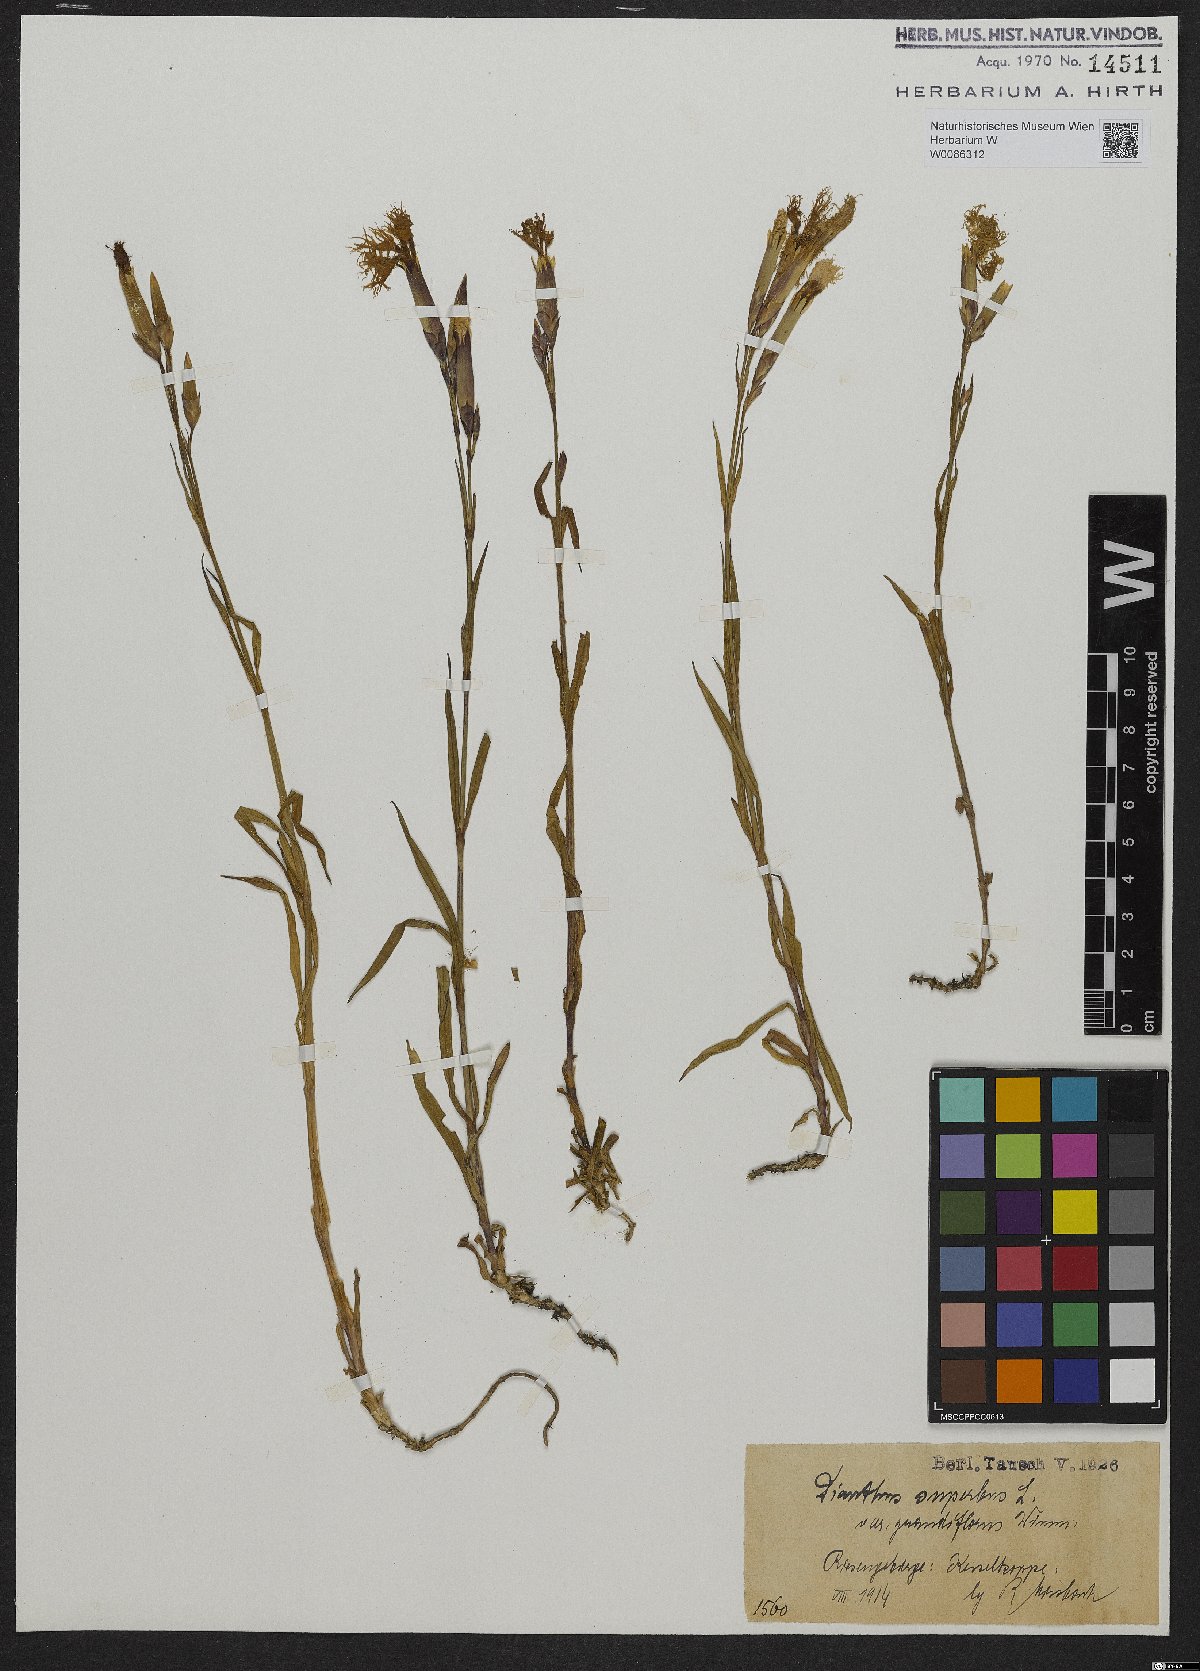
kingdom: Plantae
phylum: Tracheophyta
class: Magnoliopsida
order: Caryophyllales
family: Caryophyllaceae
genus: Dianthus
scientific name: Dianthus superbus
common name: Fringed pink
